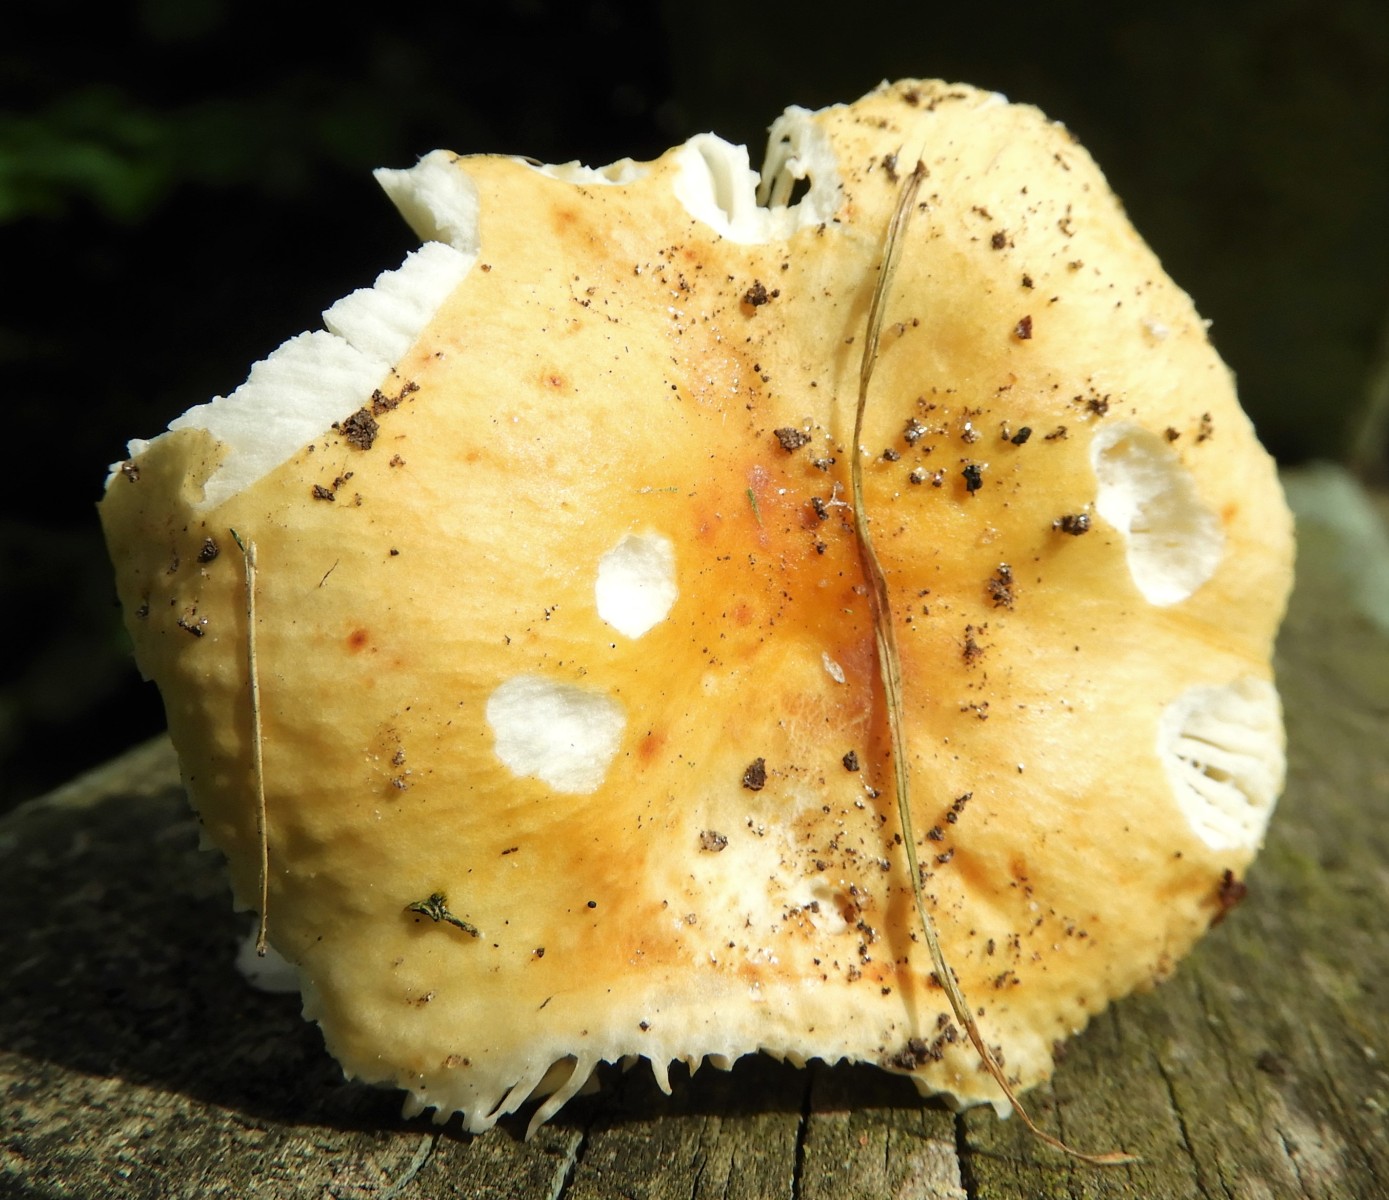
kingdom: Fungi
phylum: Basidiomycota
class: Agaricomycetes
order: Russulales
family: Russulaceae
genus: Russula
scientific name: Russula solaris
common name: sol-skørhat
